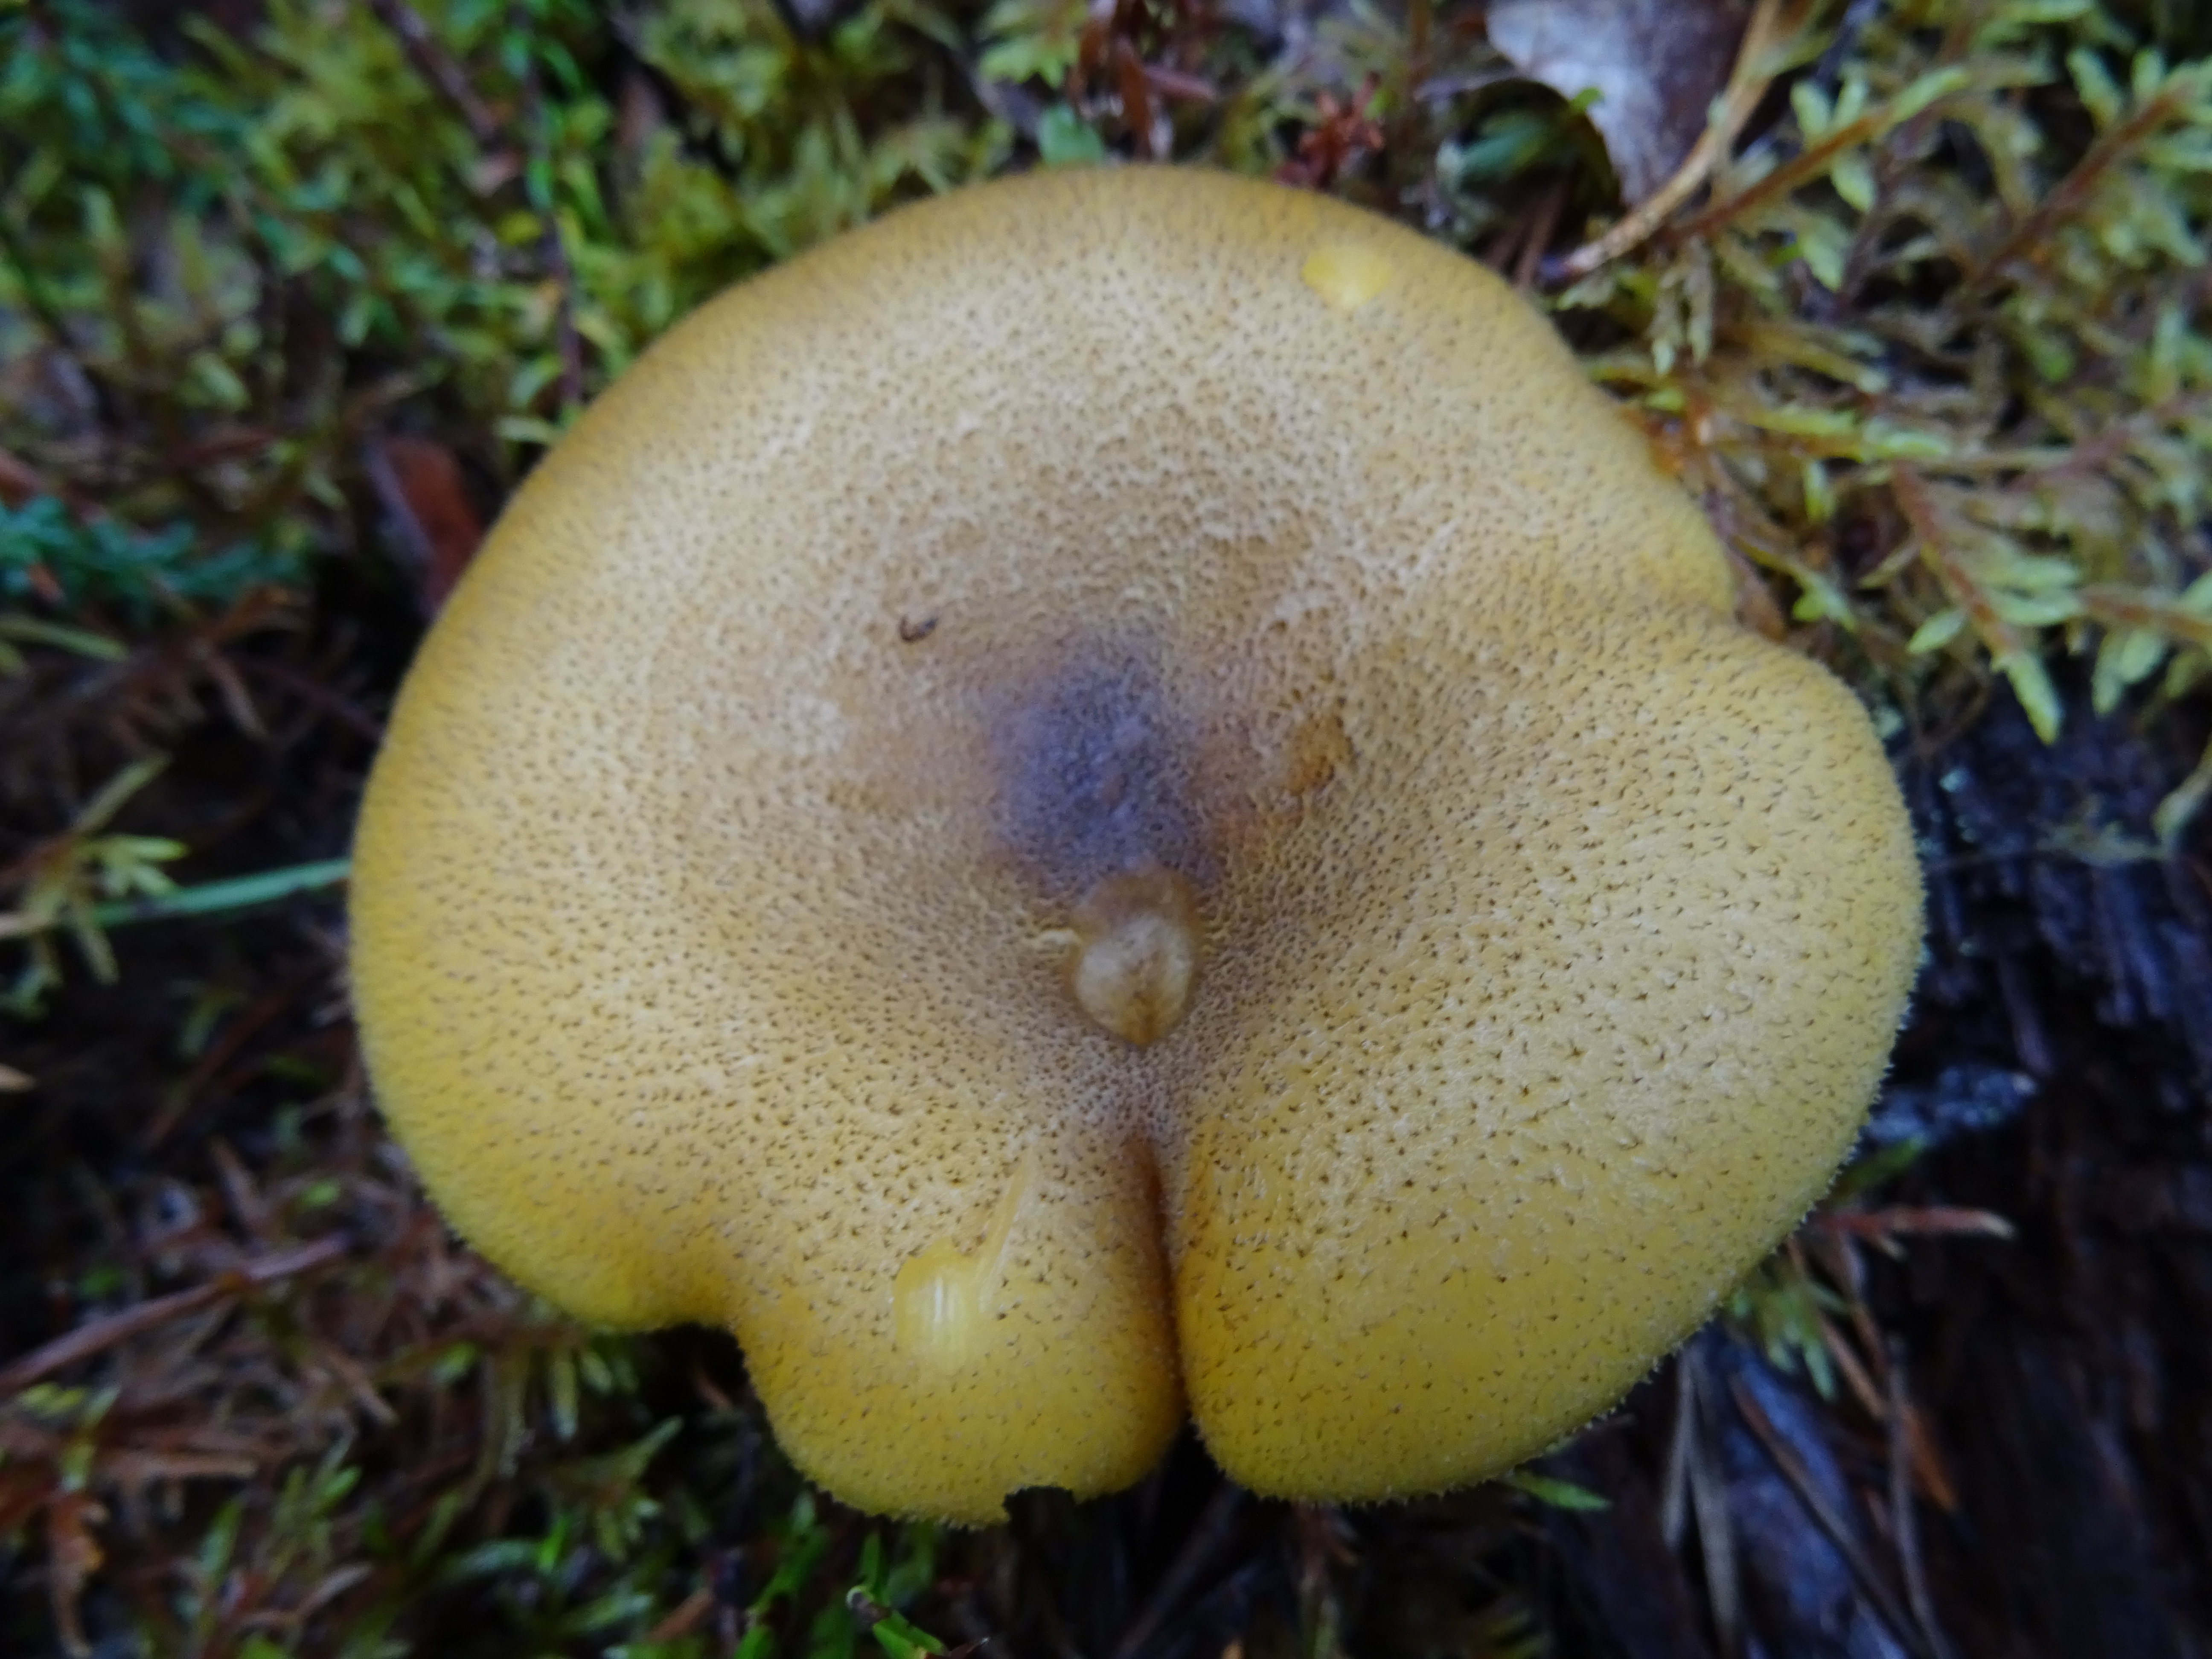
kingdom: Fungi
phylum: Basidiomycota
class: Agaricomycetes
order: Agaricales
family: Tricholomataceae
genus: Tricholomopsis
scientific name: Tricholomopsis decora
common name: Prunes and custard
